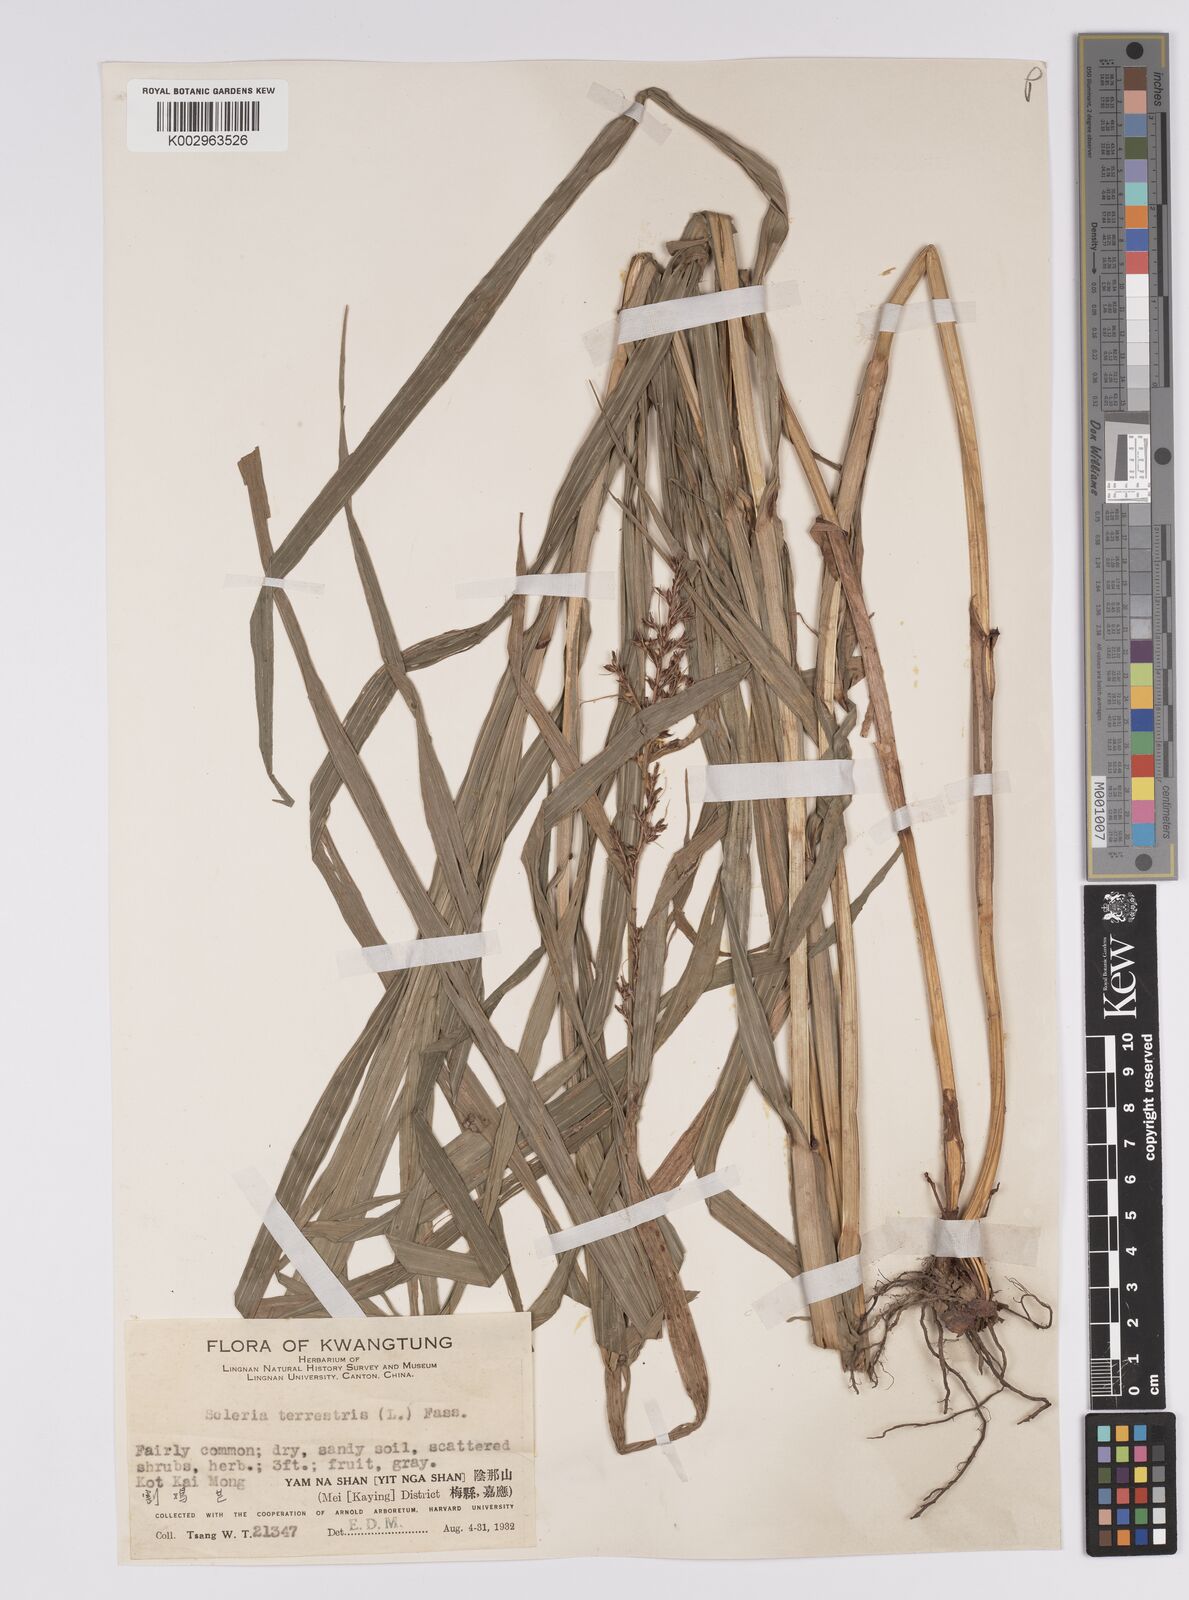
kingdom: Plantae
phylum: Tracheophyta
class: Liliopsida
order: Poales
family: Cyperaceae
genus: Scleria
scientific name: Scleria terrestris
